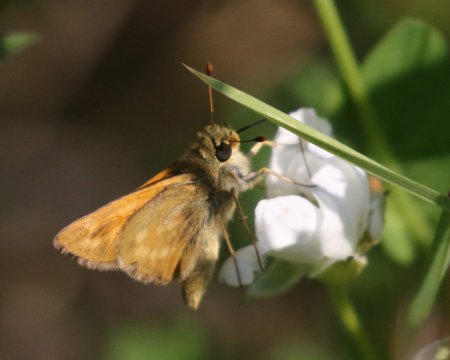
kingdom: Animalia
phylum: Arthropoda
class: Insecta
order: Lepidoptera
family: Hesperiidae
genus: Spialia
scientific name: Spialia galba
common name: Indian Skipper
